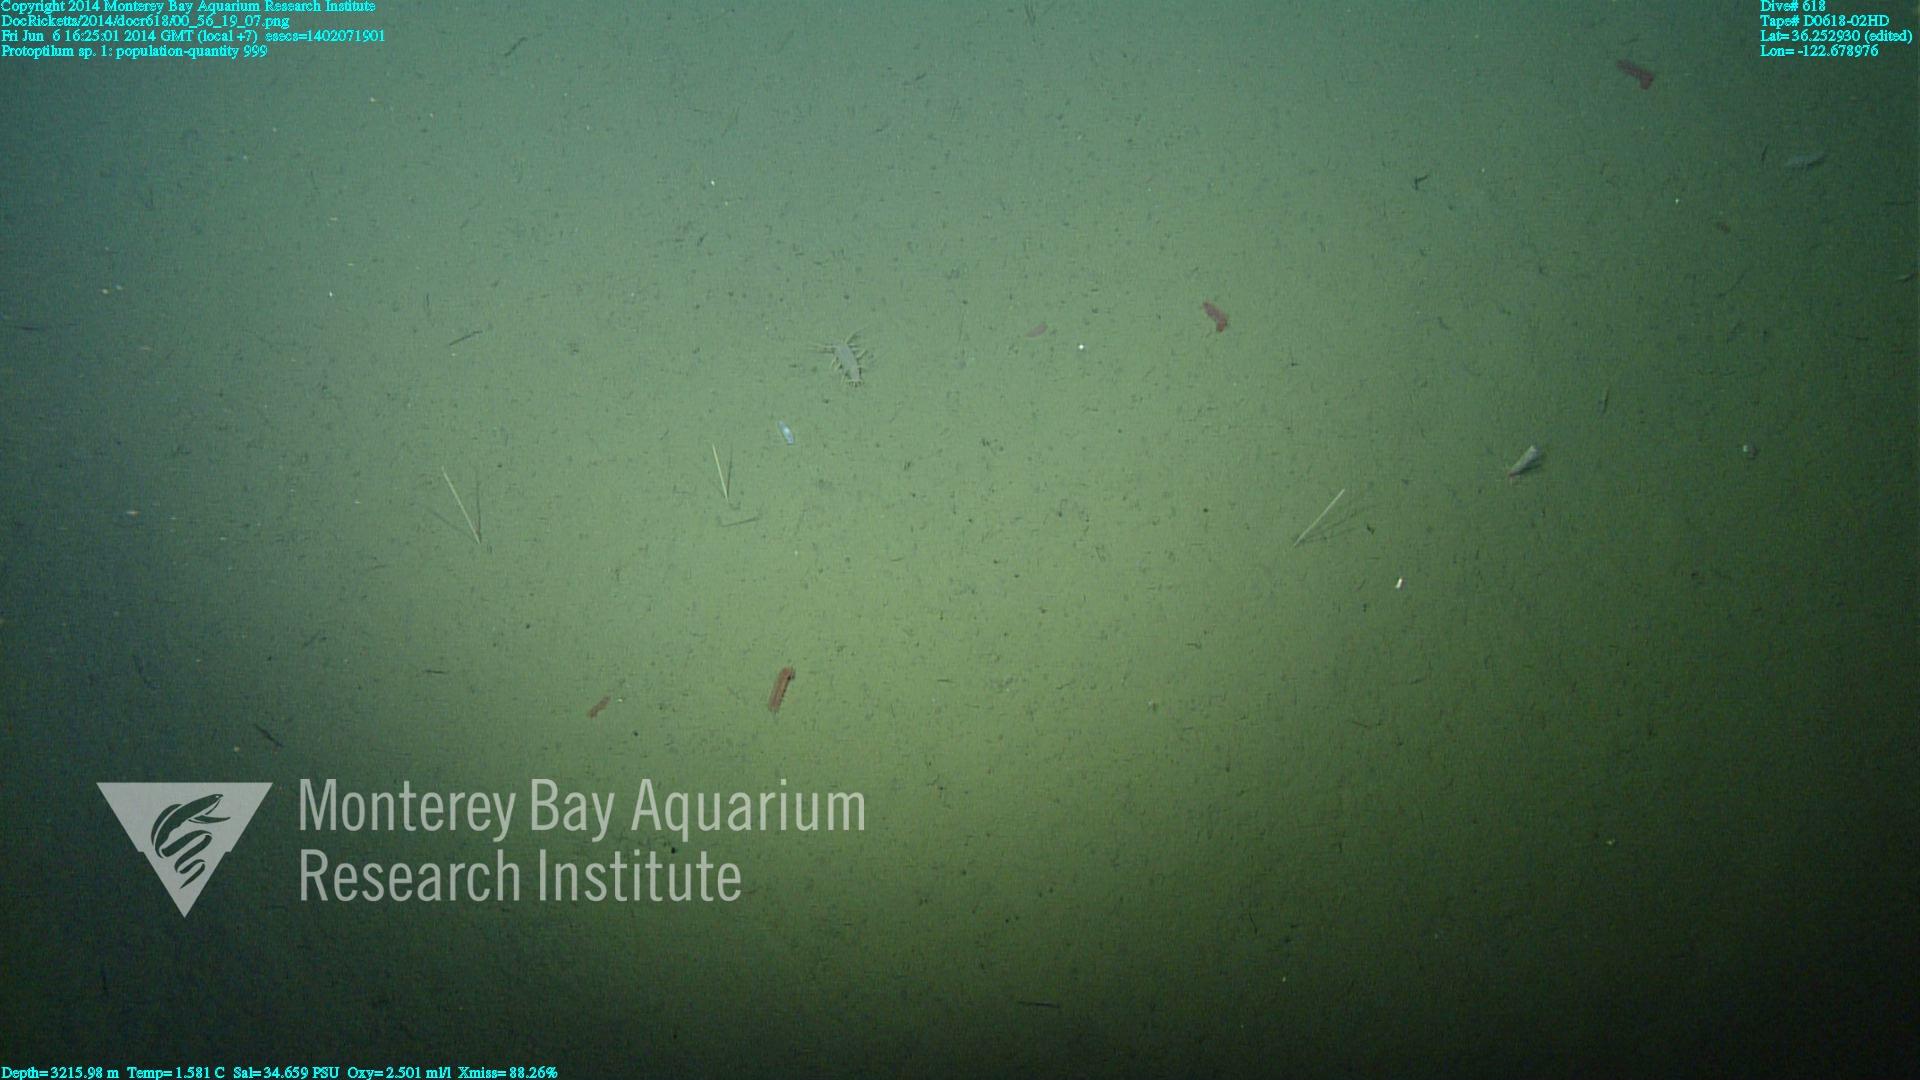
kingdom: Animalia
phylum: Cnidaria
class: Anthozoa
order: Scleralcyonacea
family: Protoptilidae
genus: Protoptilum
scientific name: Protoptilum
